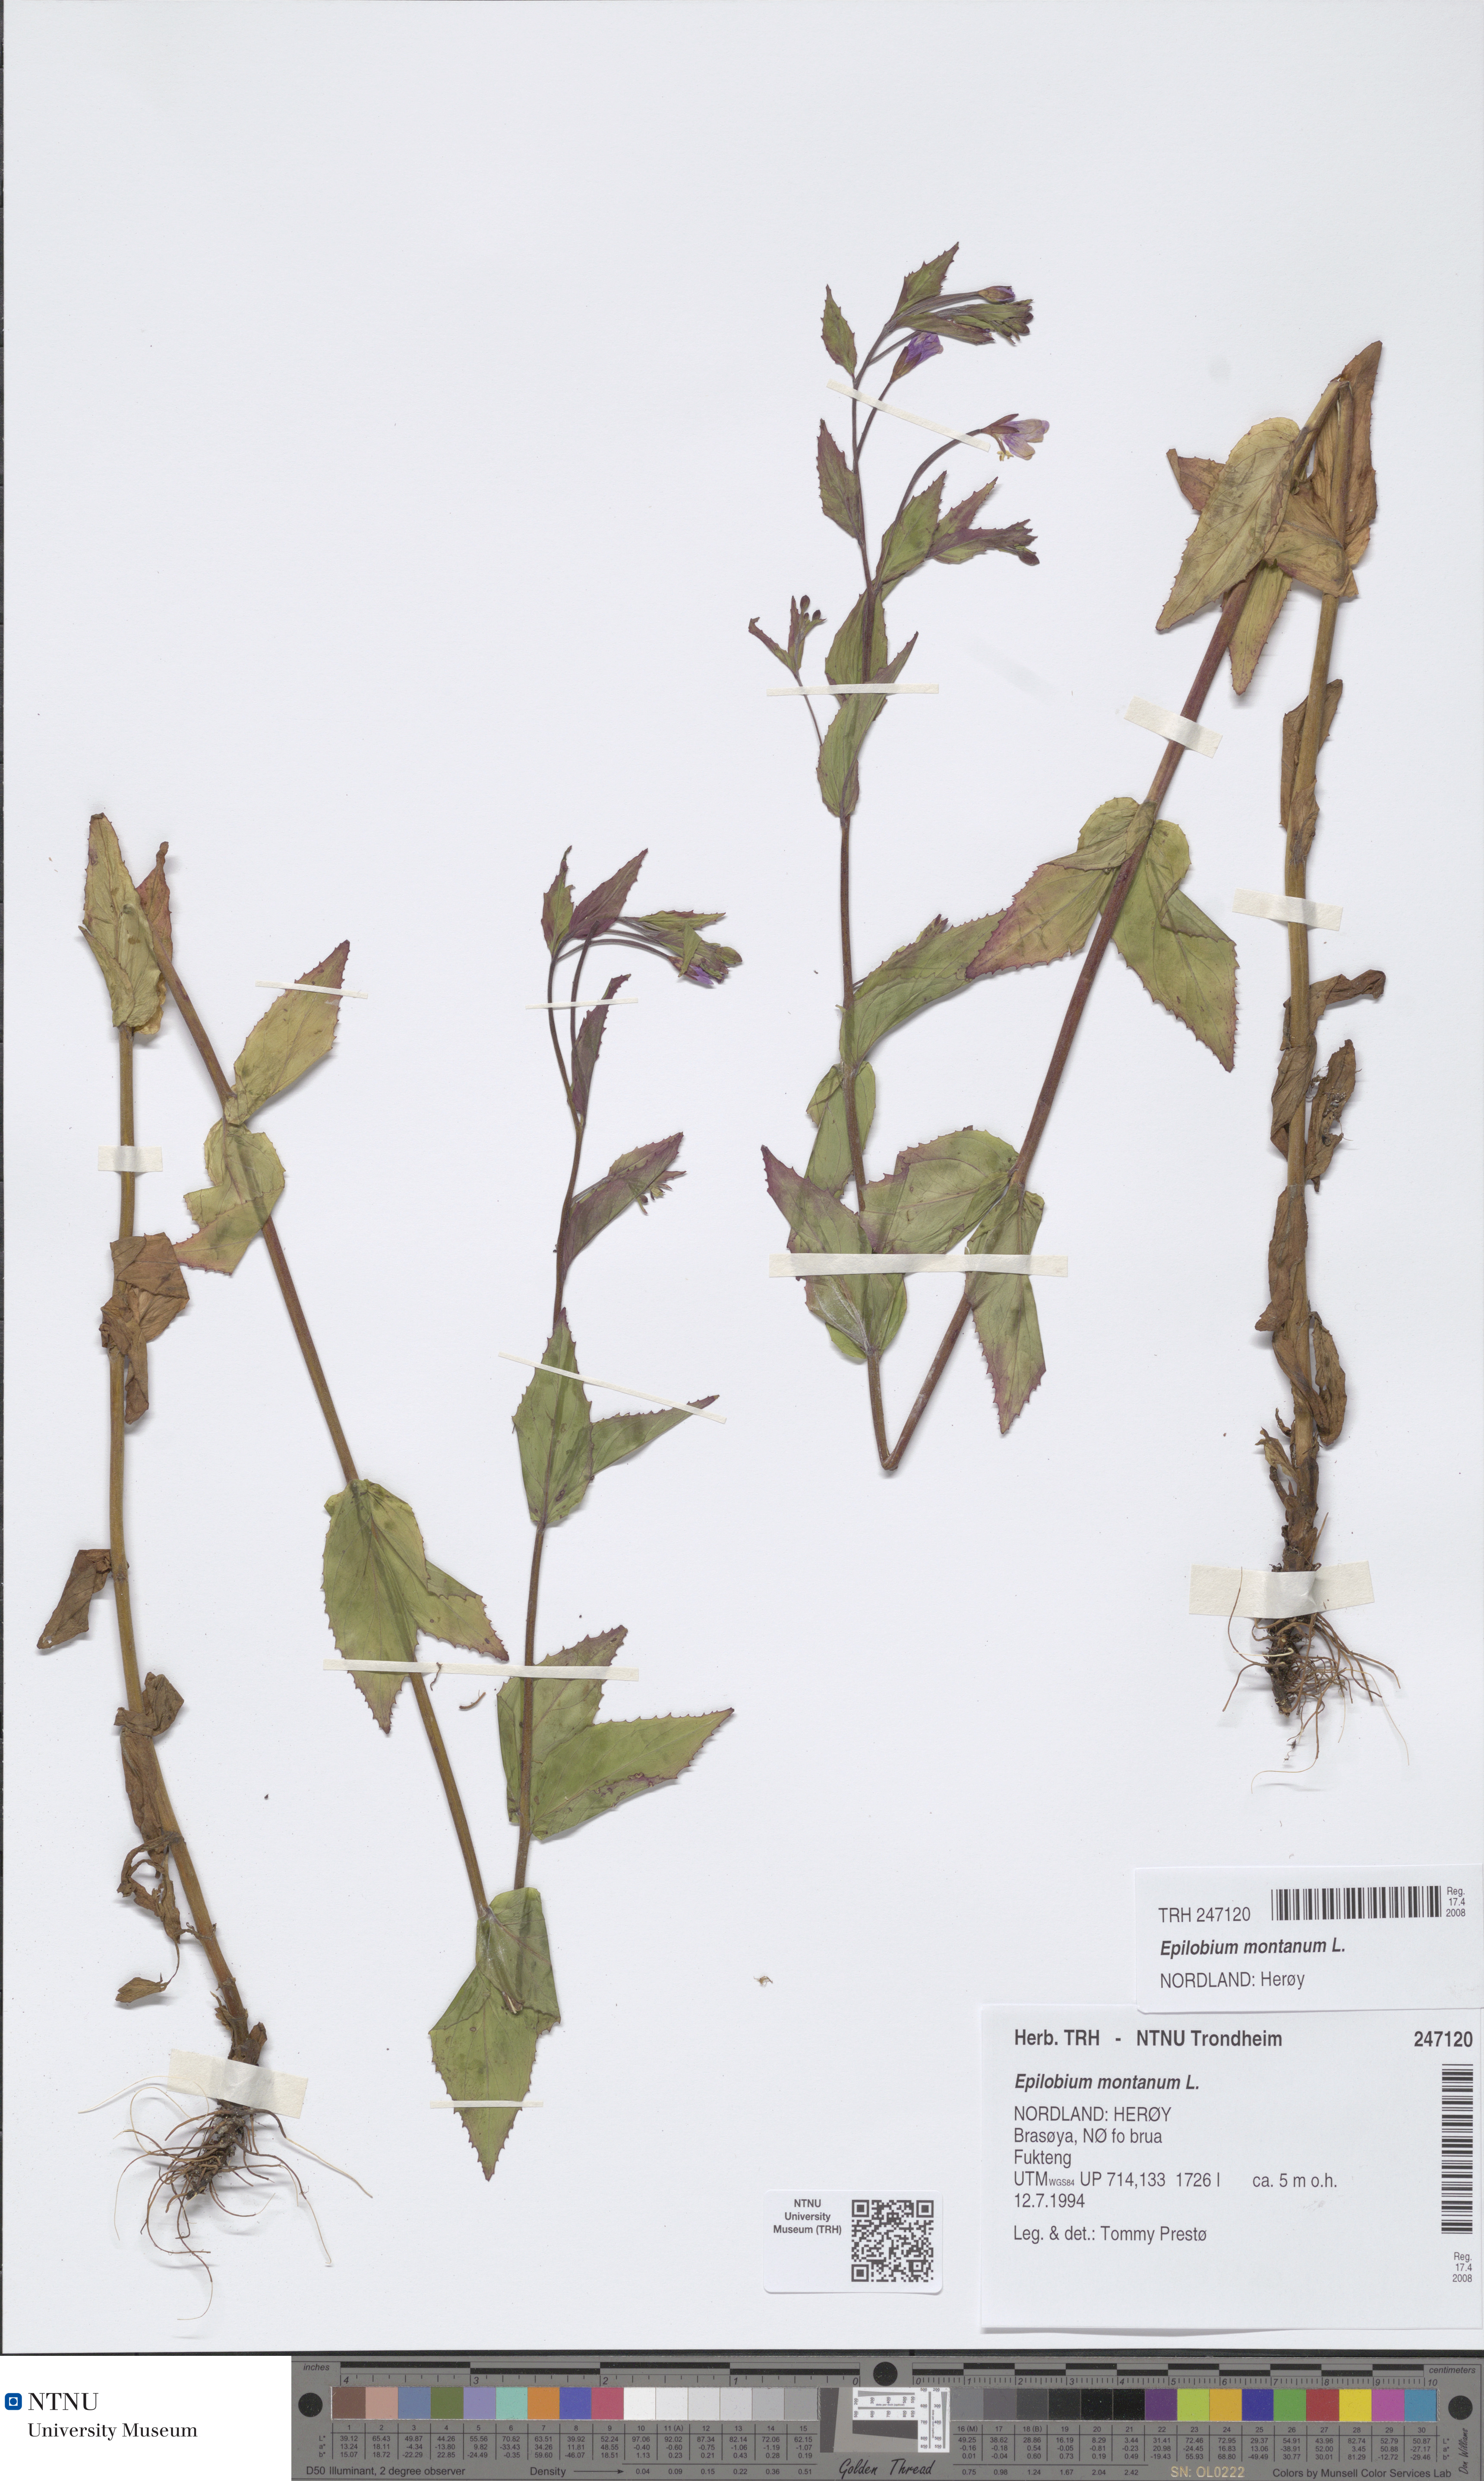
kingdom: Plantae
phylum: Tracheophyta
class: Magnoliopsida
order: Myrtales
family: Onagraceae
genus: Epilobium
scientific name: Epilobium montanum
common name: Broad-leaved willowherb
